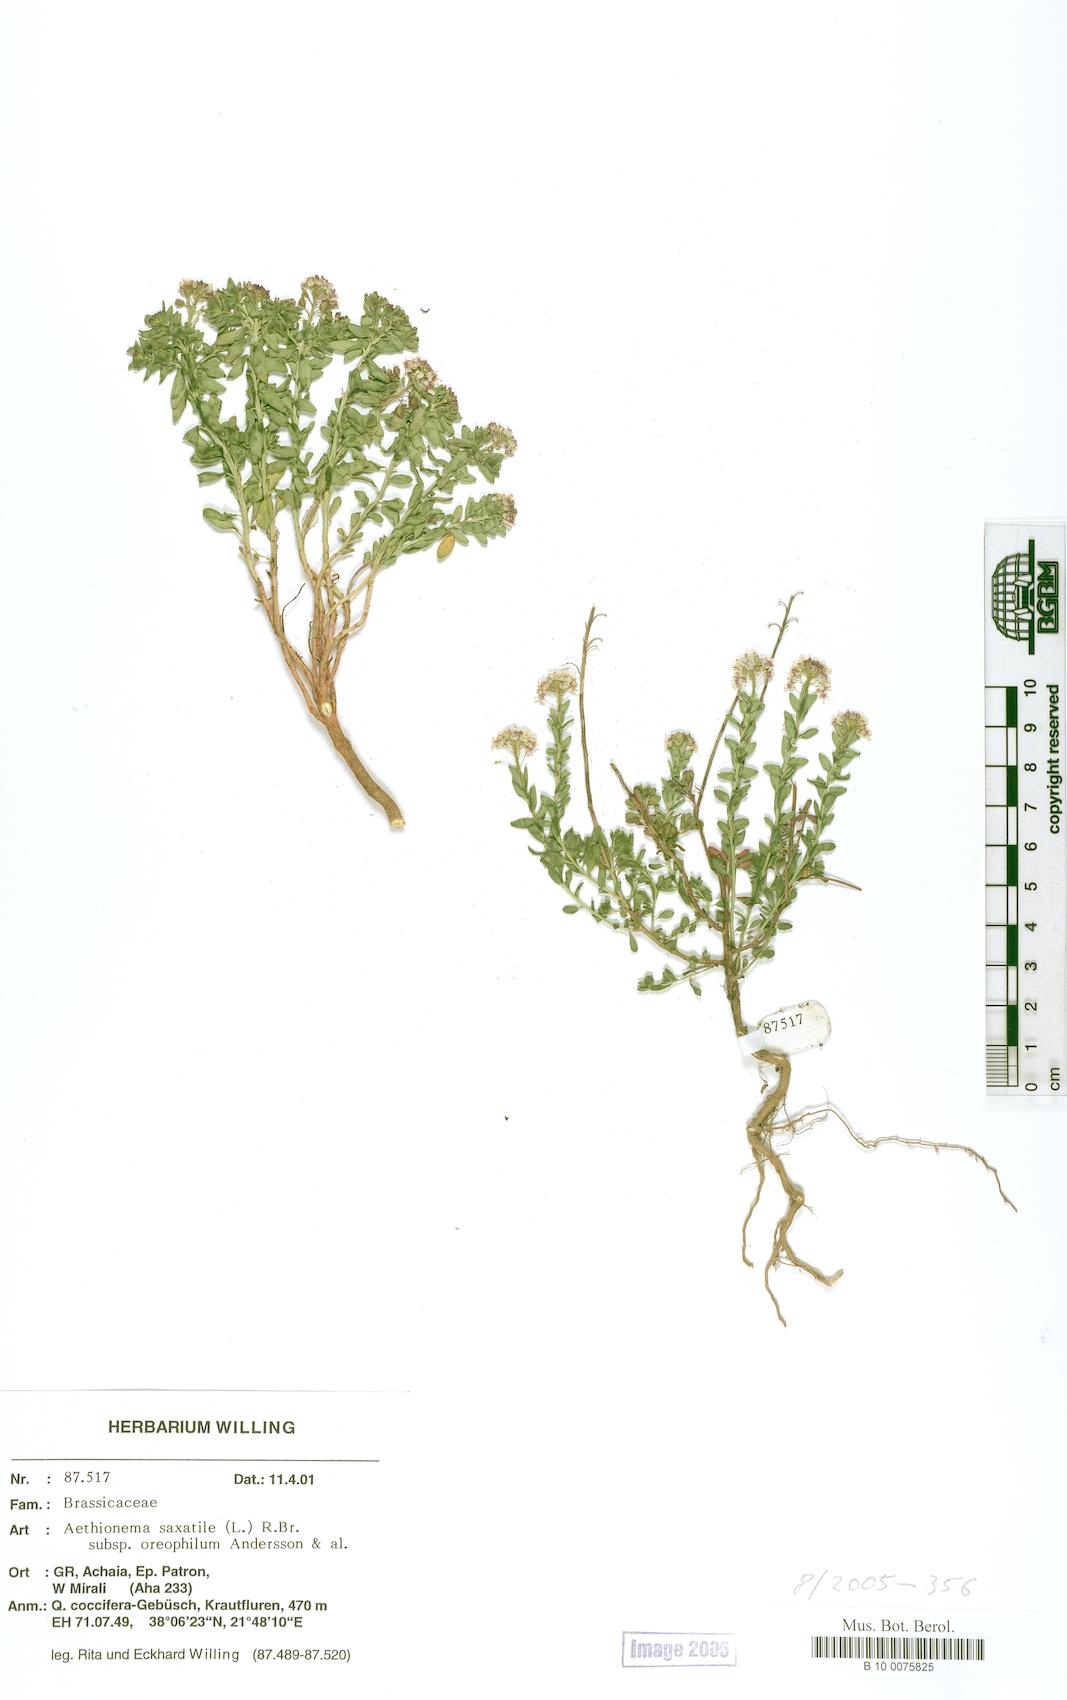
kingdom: Plantae
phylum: Tracheophyta
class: Magnoliopsida
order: Brassicales
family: Brassicaceae
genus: Aethionema
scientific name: Aethionema saxatile
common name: Burnt candytuft
